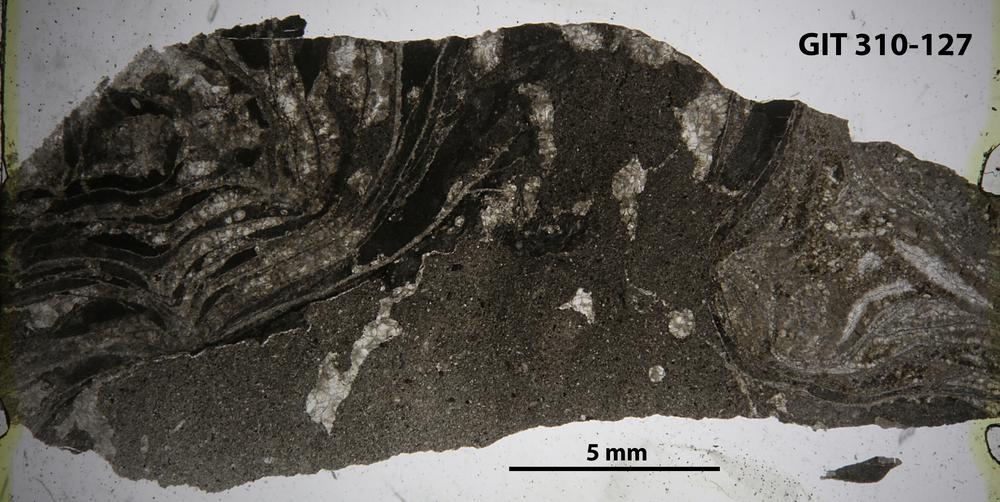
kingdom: Animalia
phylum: Porifera
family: Stylostromatidae
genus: Pachystylostroma
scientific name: Pachystylostroma
